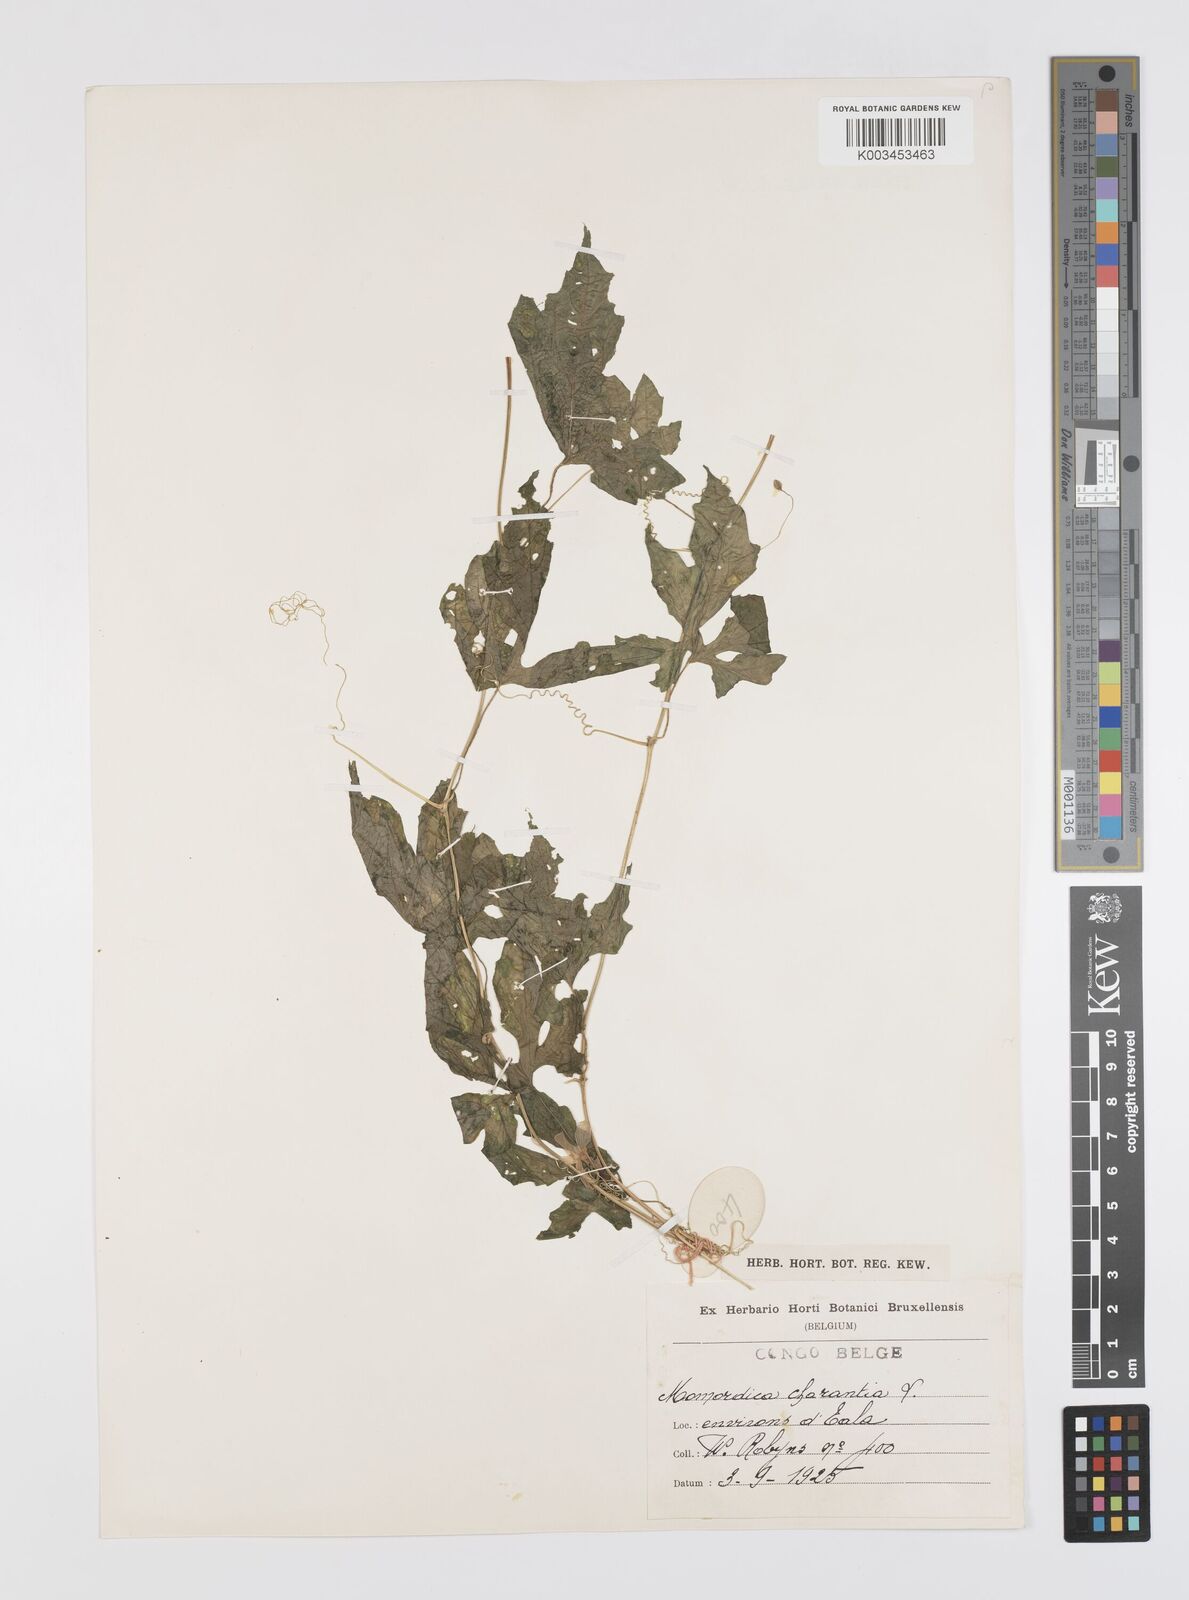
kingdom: Plantae
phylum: Tracheophyta
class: Magnoliopsida
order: Cucurbitales
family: Cucurbitaceae
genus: Momordica
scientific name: Momordica charantia
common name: Balsampear
